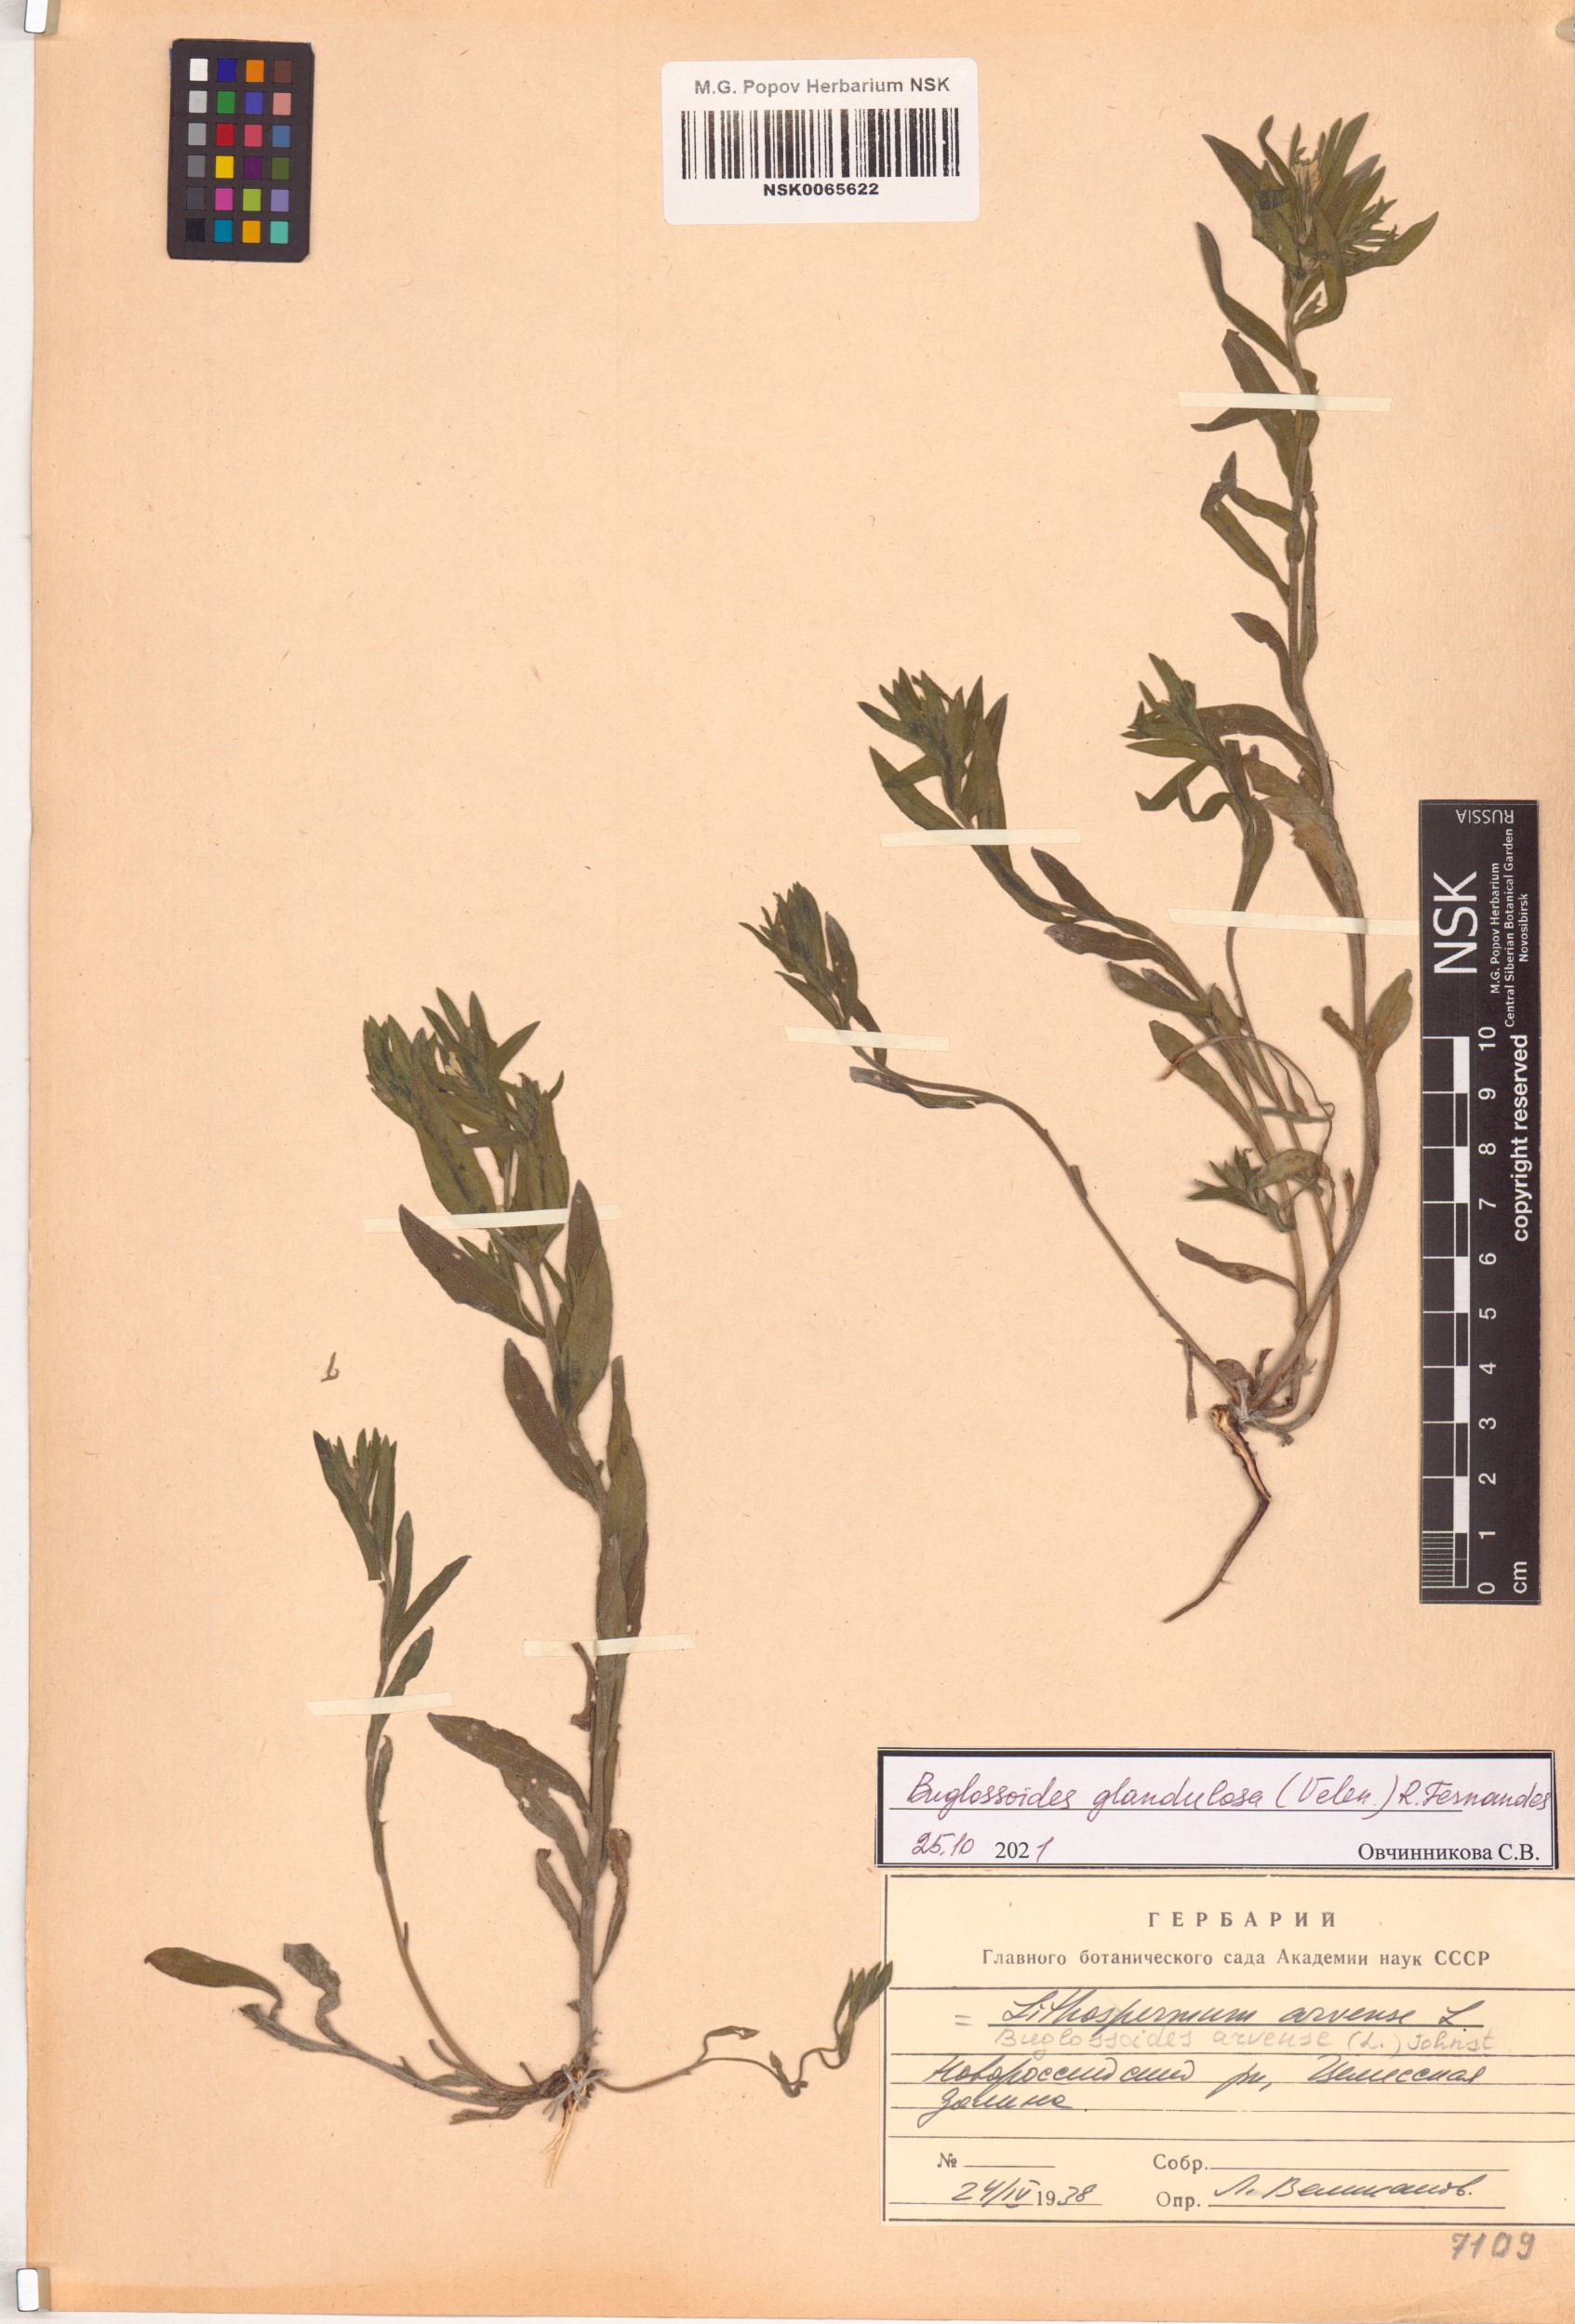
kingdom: Plantae
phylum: Tracheophyta
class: Magnoliopsida
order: Boraginales
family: Boraginaceae
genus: Buglossoides
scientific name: Buglossoides arvensis
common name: Corn gromwell
